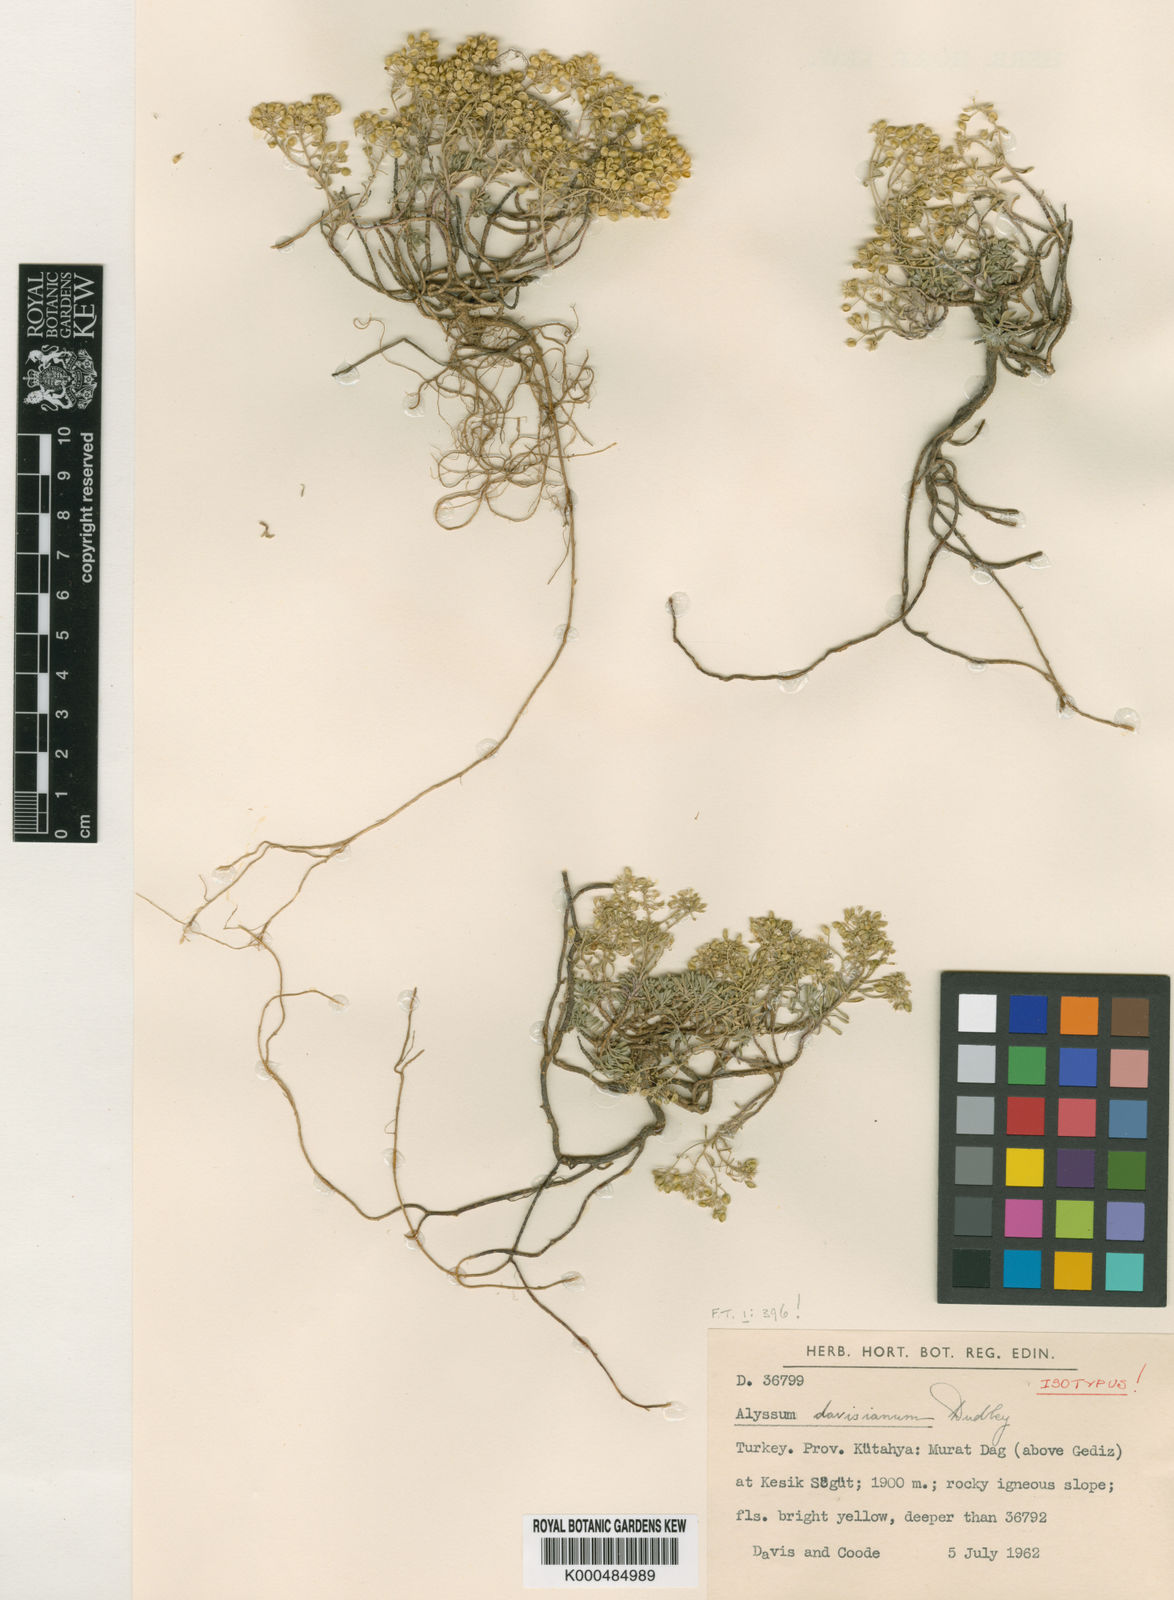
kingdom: Plantae
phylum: Tracheophyta
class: Magnoliopsida
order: Brassicales
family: Brassicaceae
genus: Odontarrhena
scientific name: Odontarrhena davisiana
